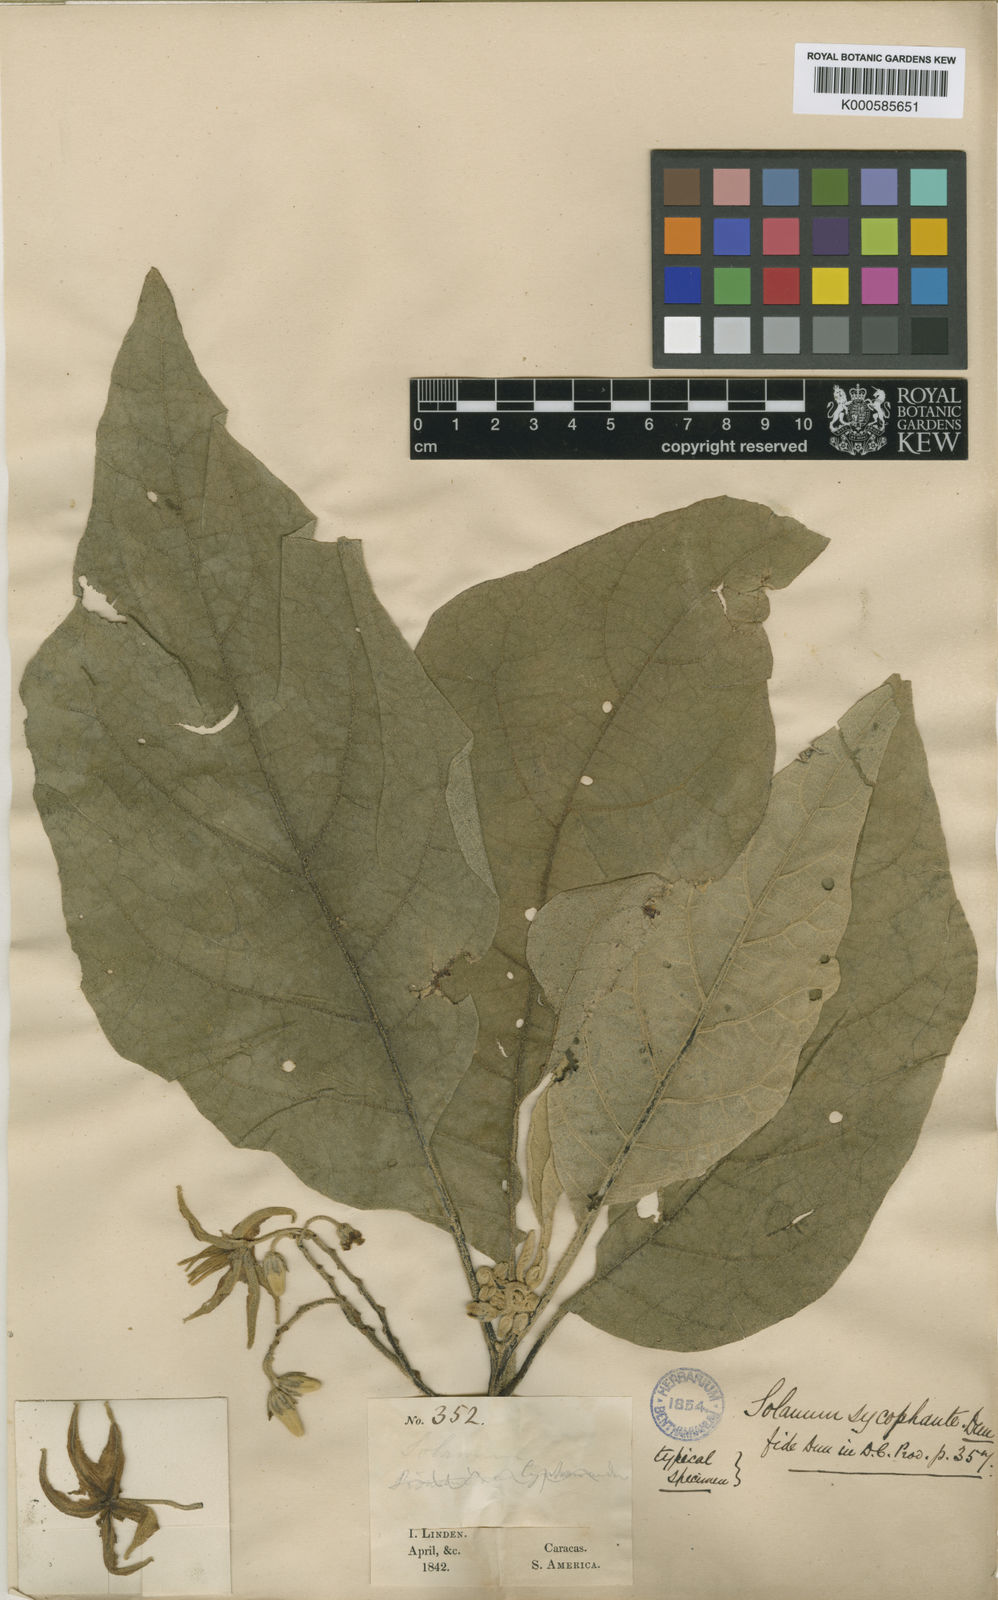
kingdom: Plantae
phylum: Tracheophyta
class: Magnoliopsida
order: Solanales
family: Solanaceae
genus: Solanum
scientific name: Solanum sycophanta
